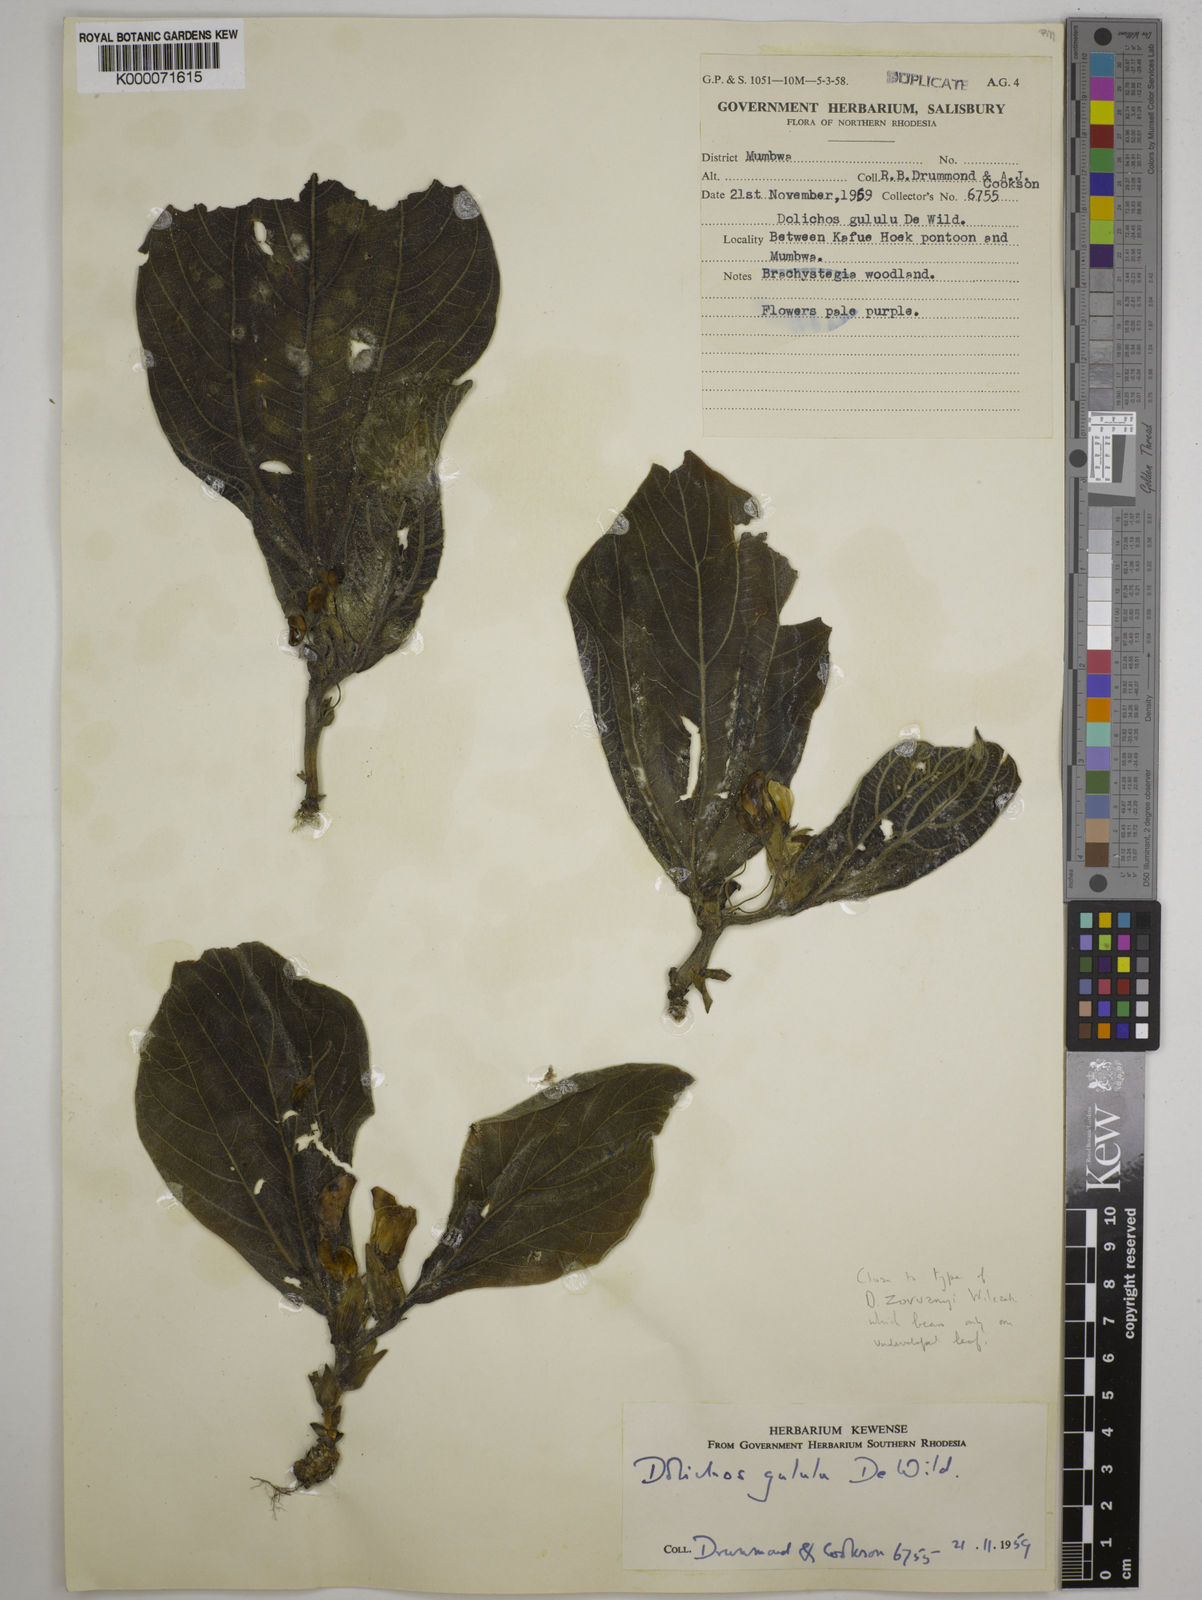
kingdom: Plantae
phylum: Tracheophyta
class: Magnoliopsida
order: Fabales
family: Fabaceae
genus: Dolichos
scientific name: Dolichos gululu
